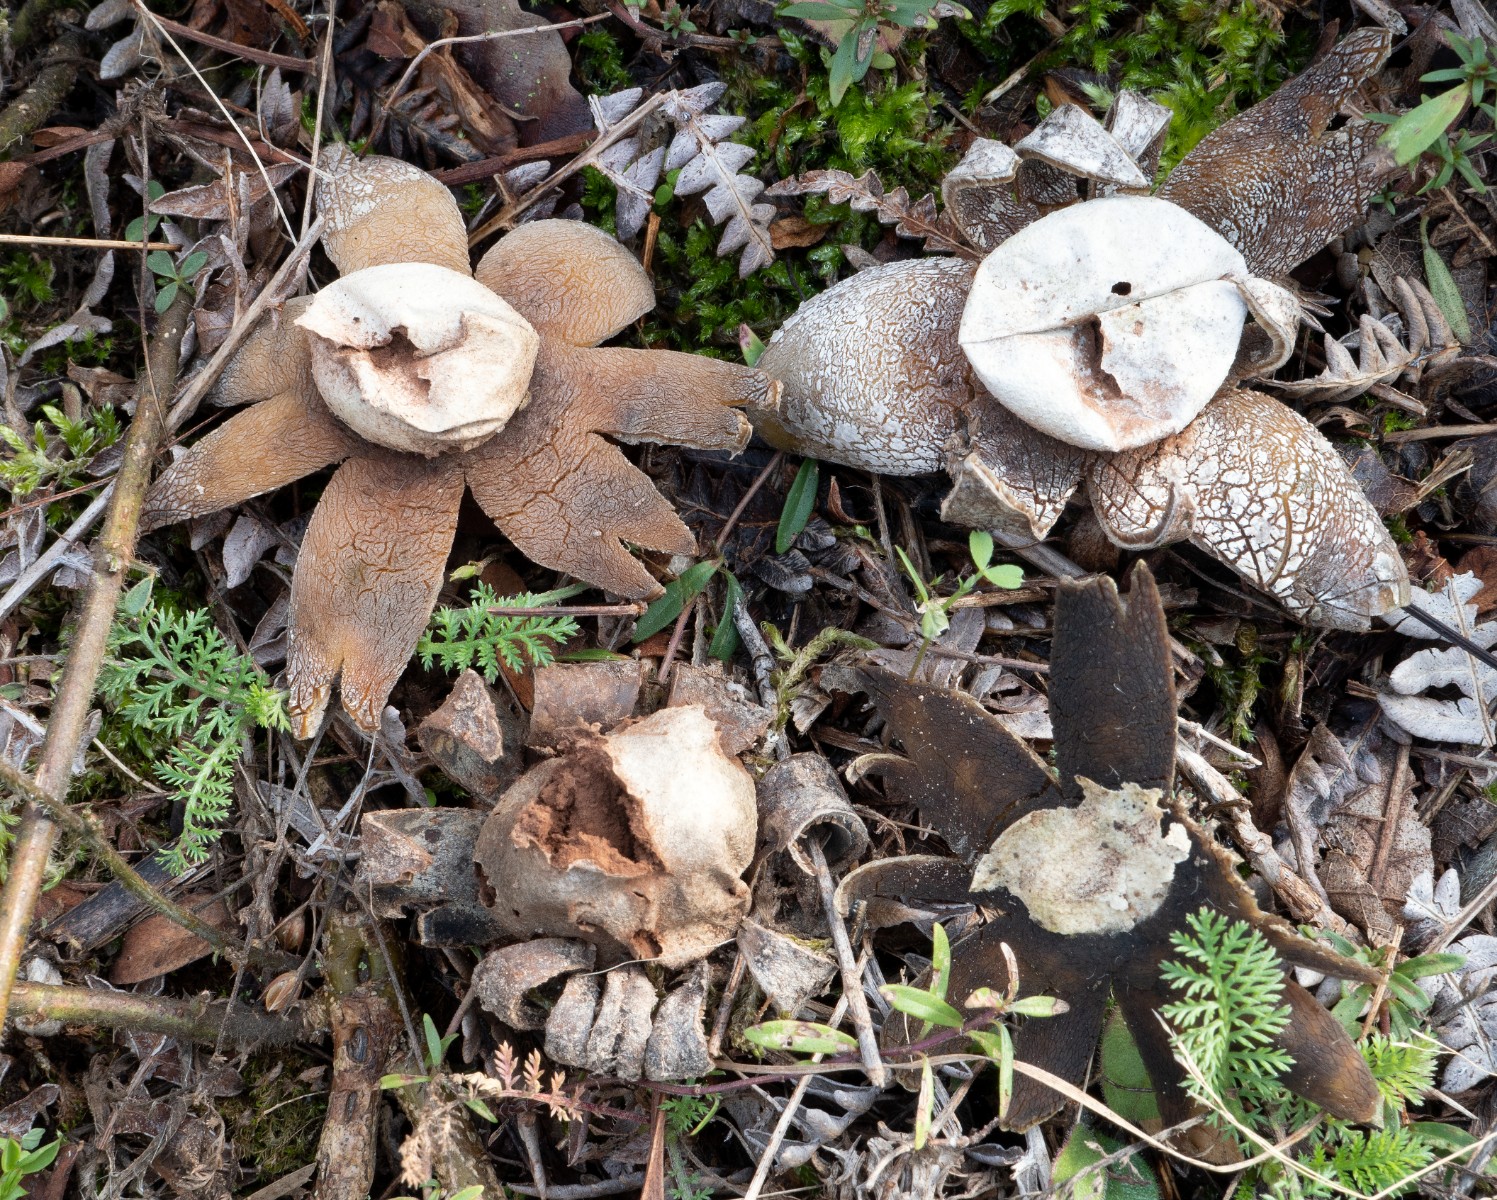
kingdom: Fungi
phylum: Basidiomycota
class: Agaricomycetes
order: Boletales
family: Diplocystidiaceae
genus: Astraeus
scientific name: Astraeus
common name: hygrometerstjerne
